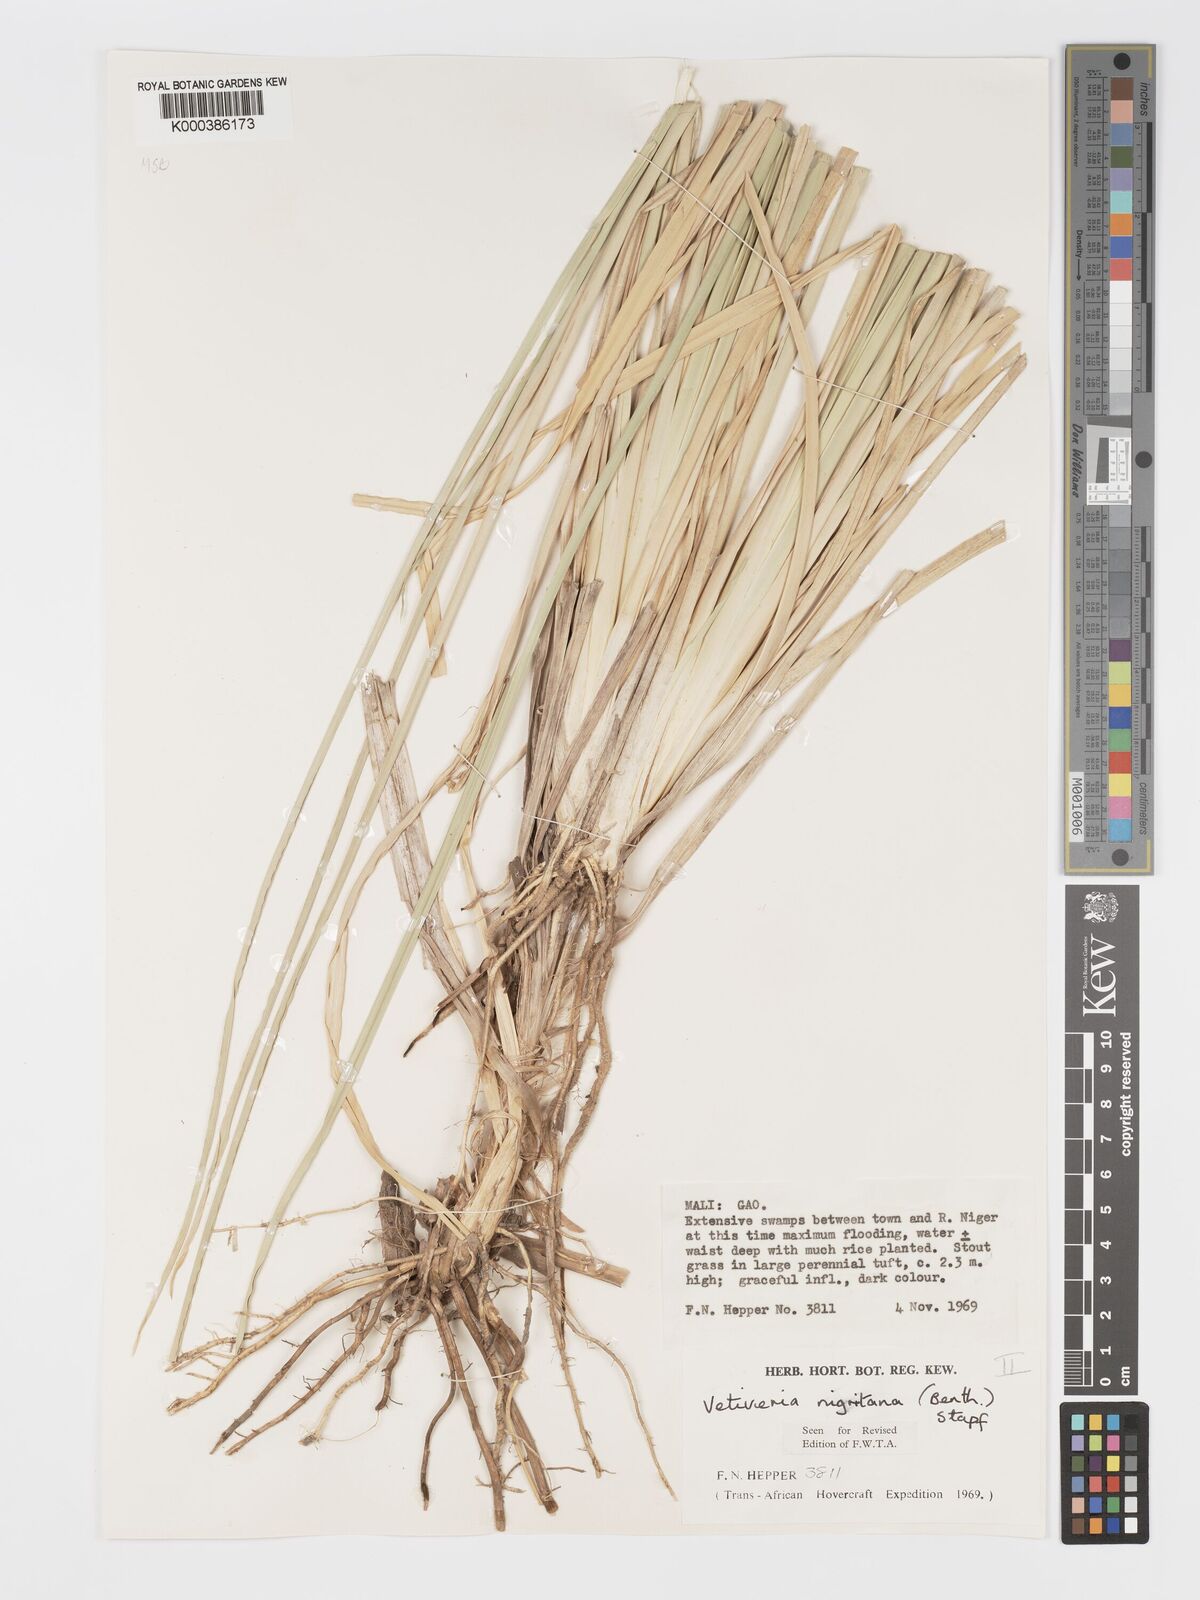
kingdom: Plantae
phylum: Tracheophyta
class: Liliopsida
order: Poales
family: Poaceae
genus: Chrysopogon
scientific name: Chrysopogon nigritanus
